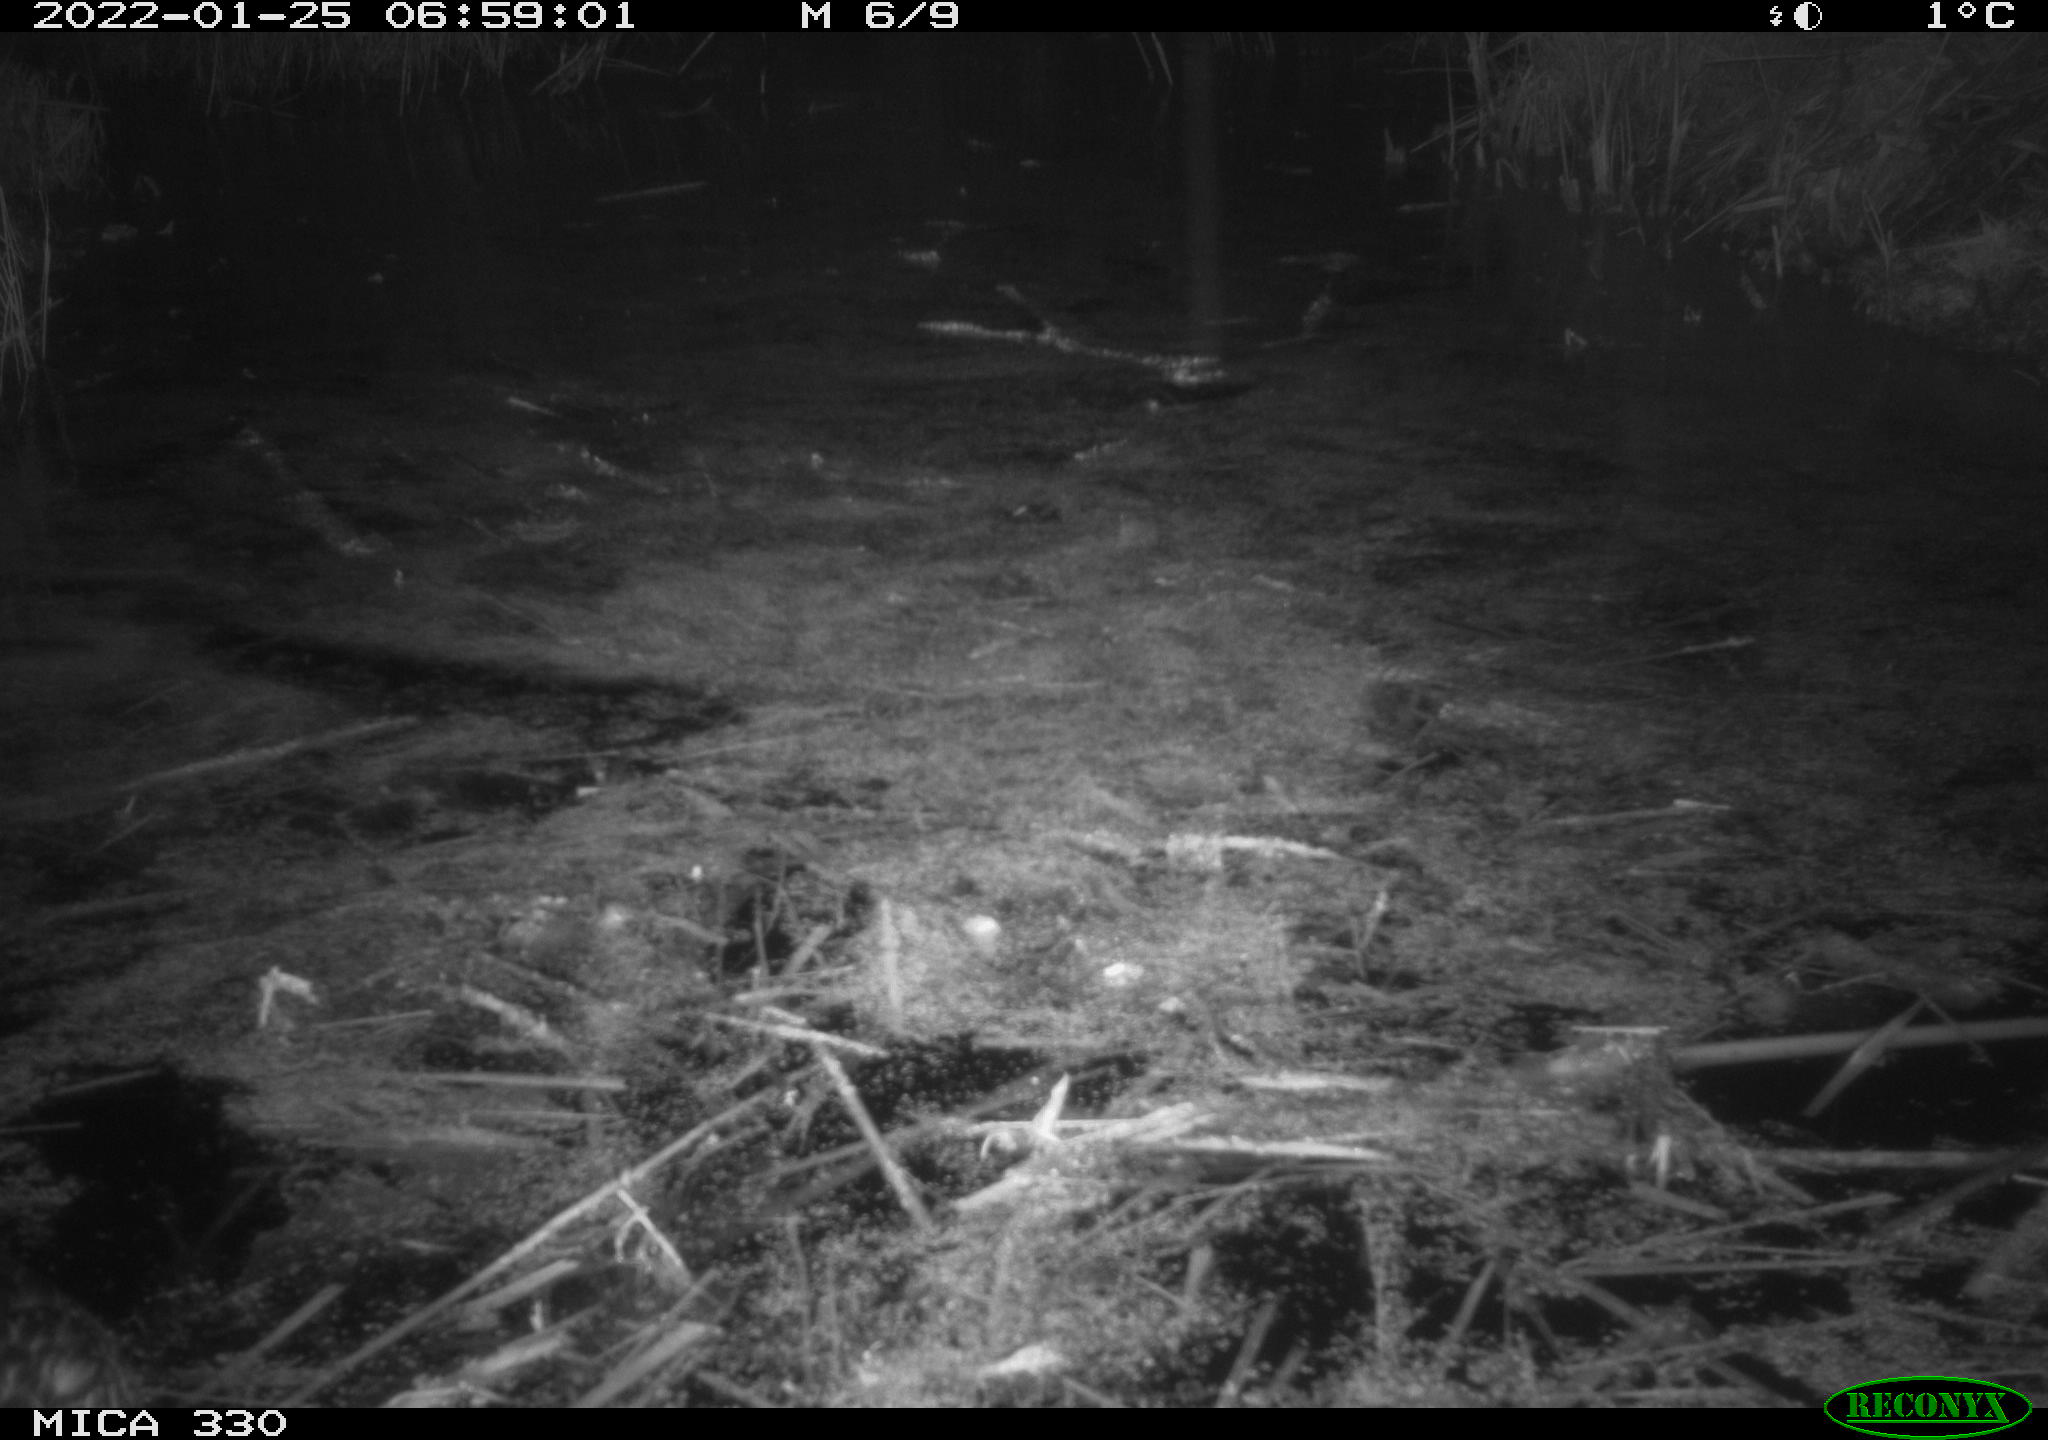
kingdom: Animalia
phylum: Chordata
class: Aves
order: Anseriformes
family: Anatidae
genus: Anas
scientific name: Anas platyrhynchos
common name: Mallard
